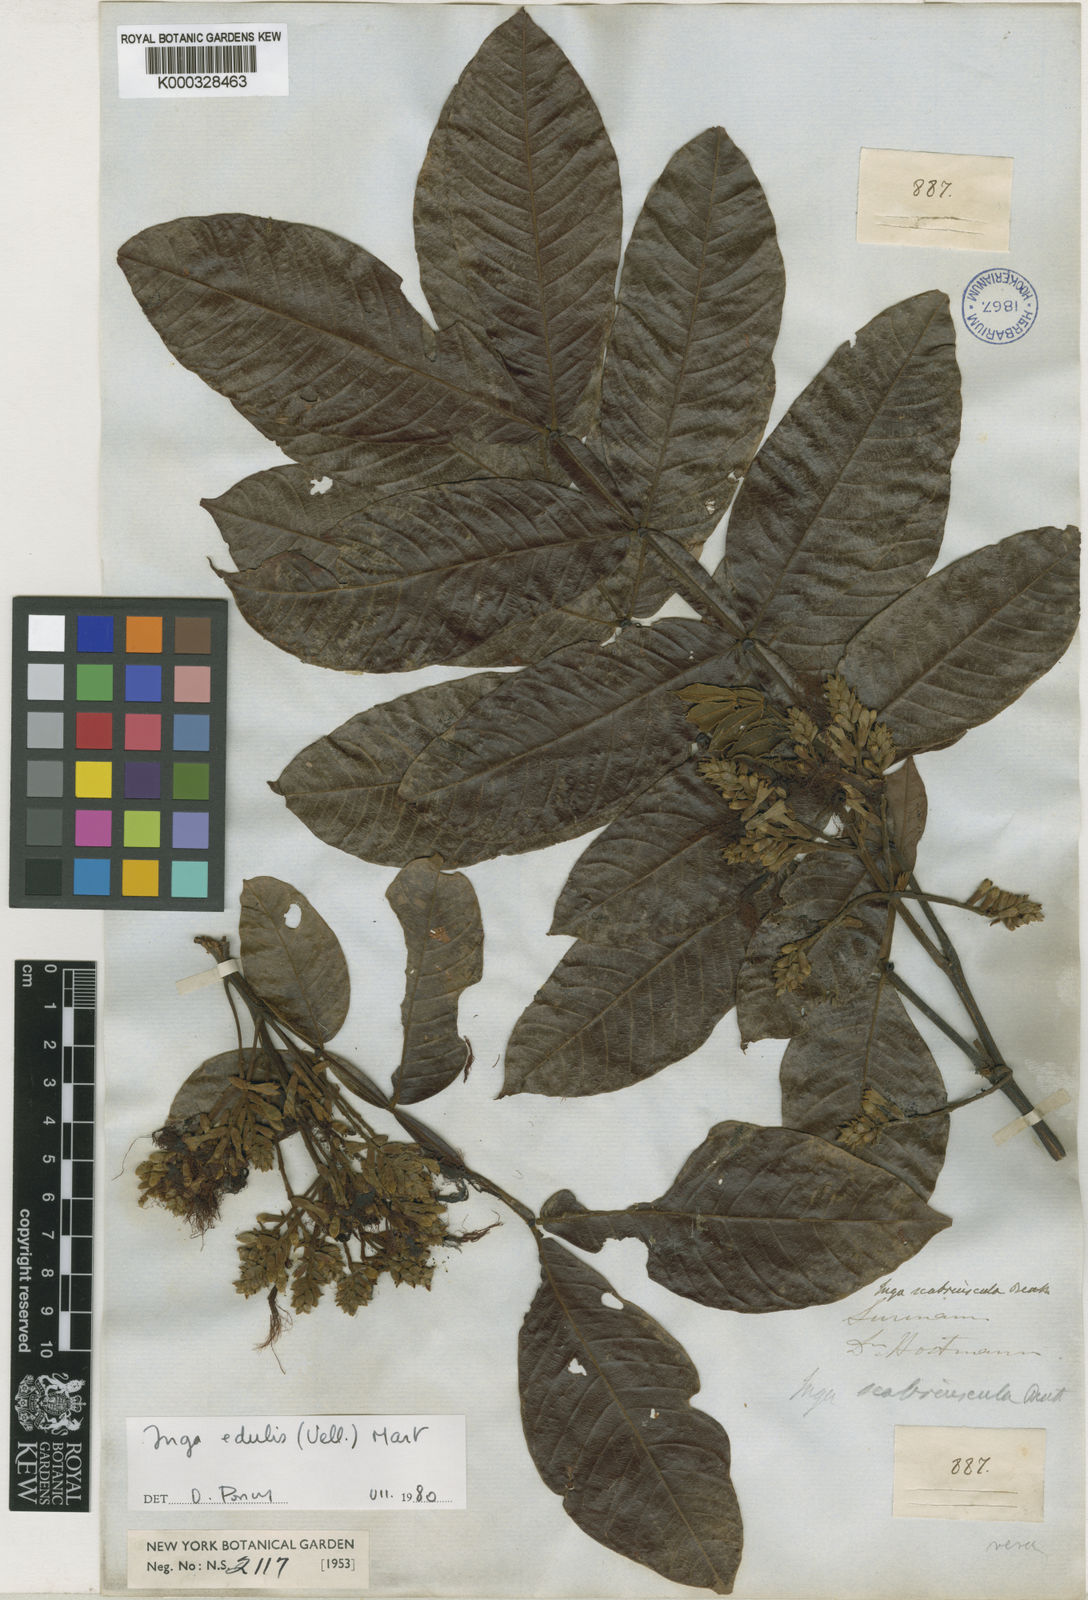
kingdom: Plantae
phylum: Tracheophyta
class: Magnoliopsida
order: Fabales
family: Fabaceae
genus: Inga
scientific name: Inga edulis
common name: Ice cream bean
